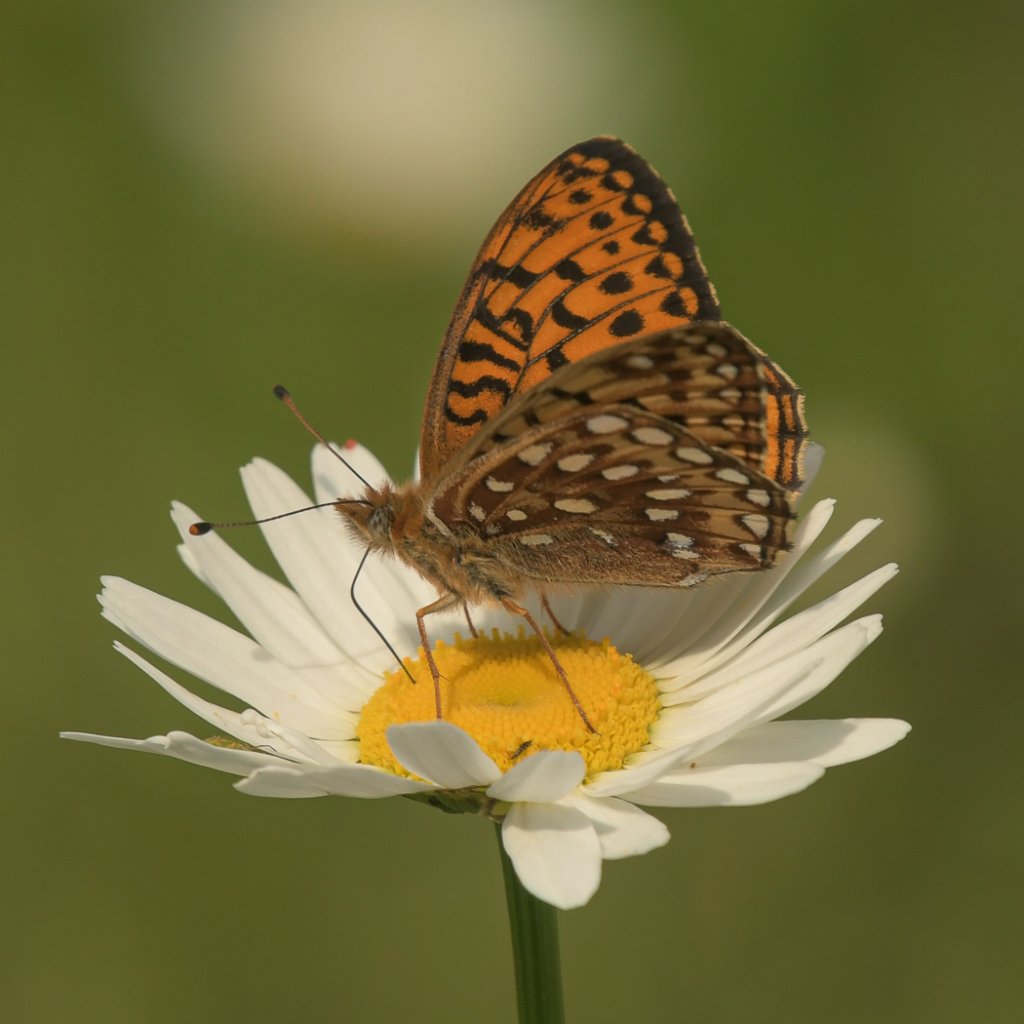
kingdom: Animalia
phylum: Arthropoda
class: Insecta
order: Lepidoptera
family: Nymphalidae
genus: Speyeria
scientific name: Speyeria atlantis
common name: Northwestern Fritillary
